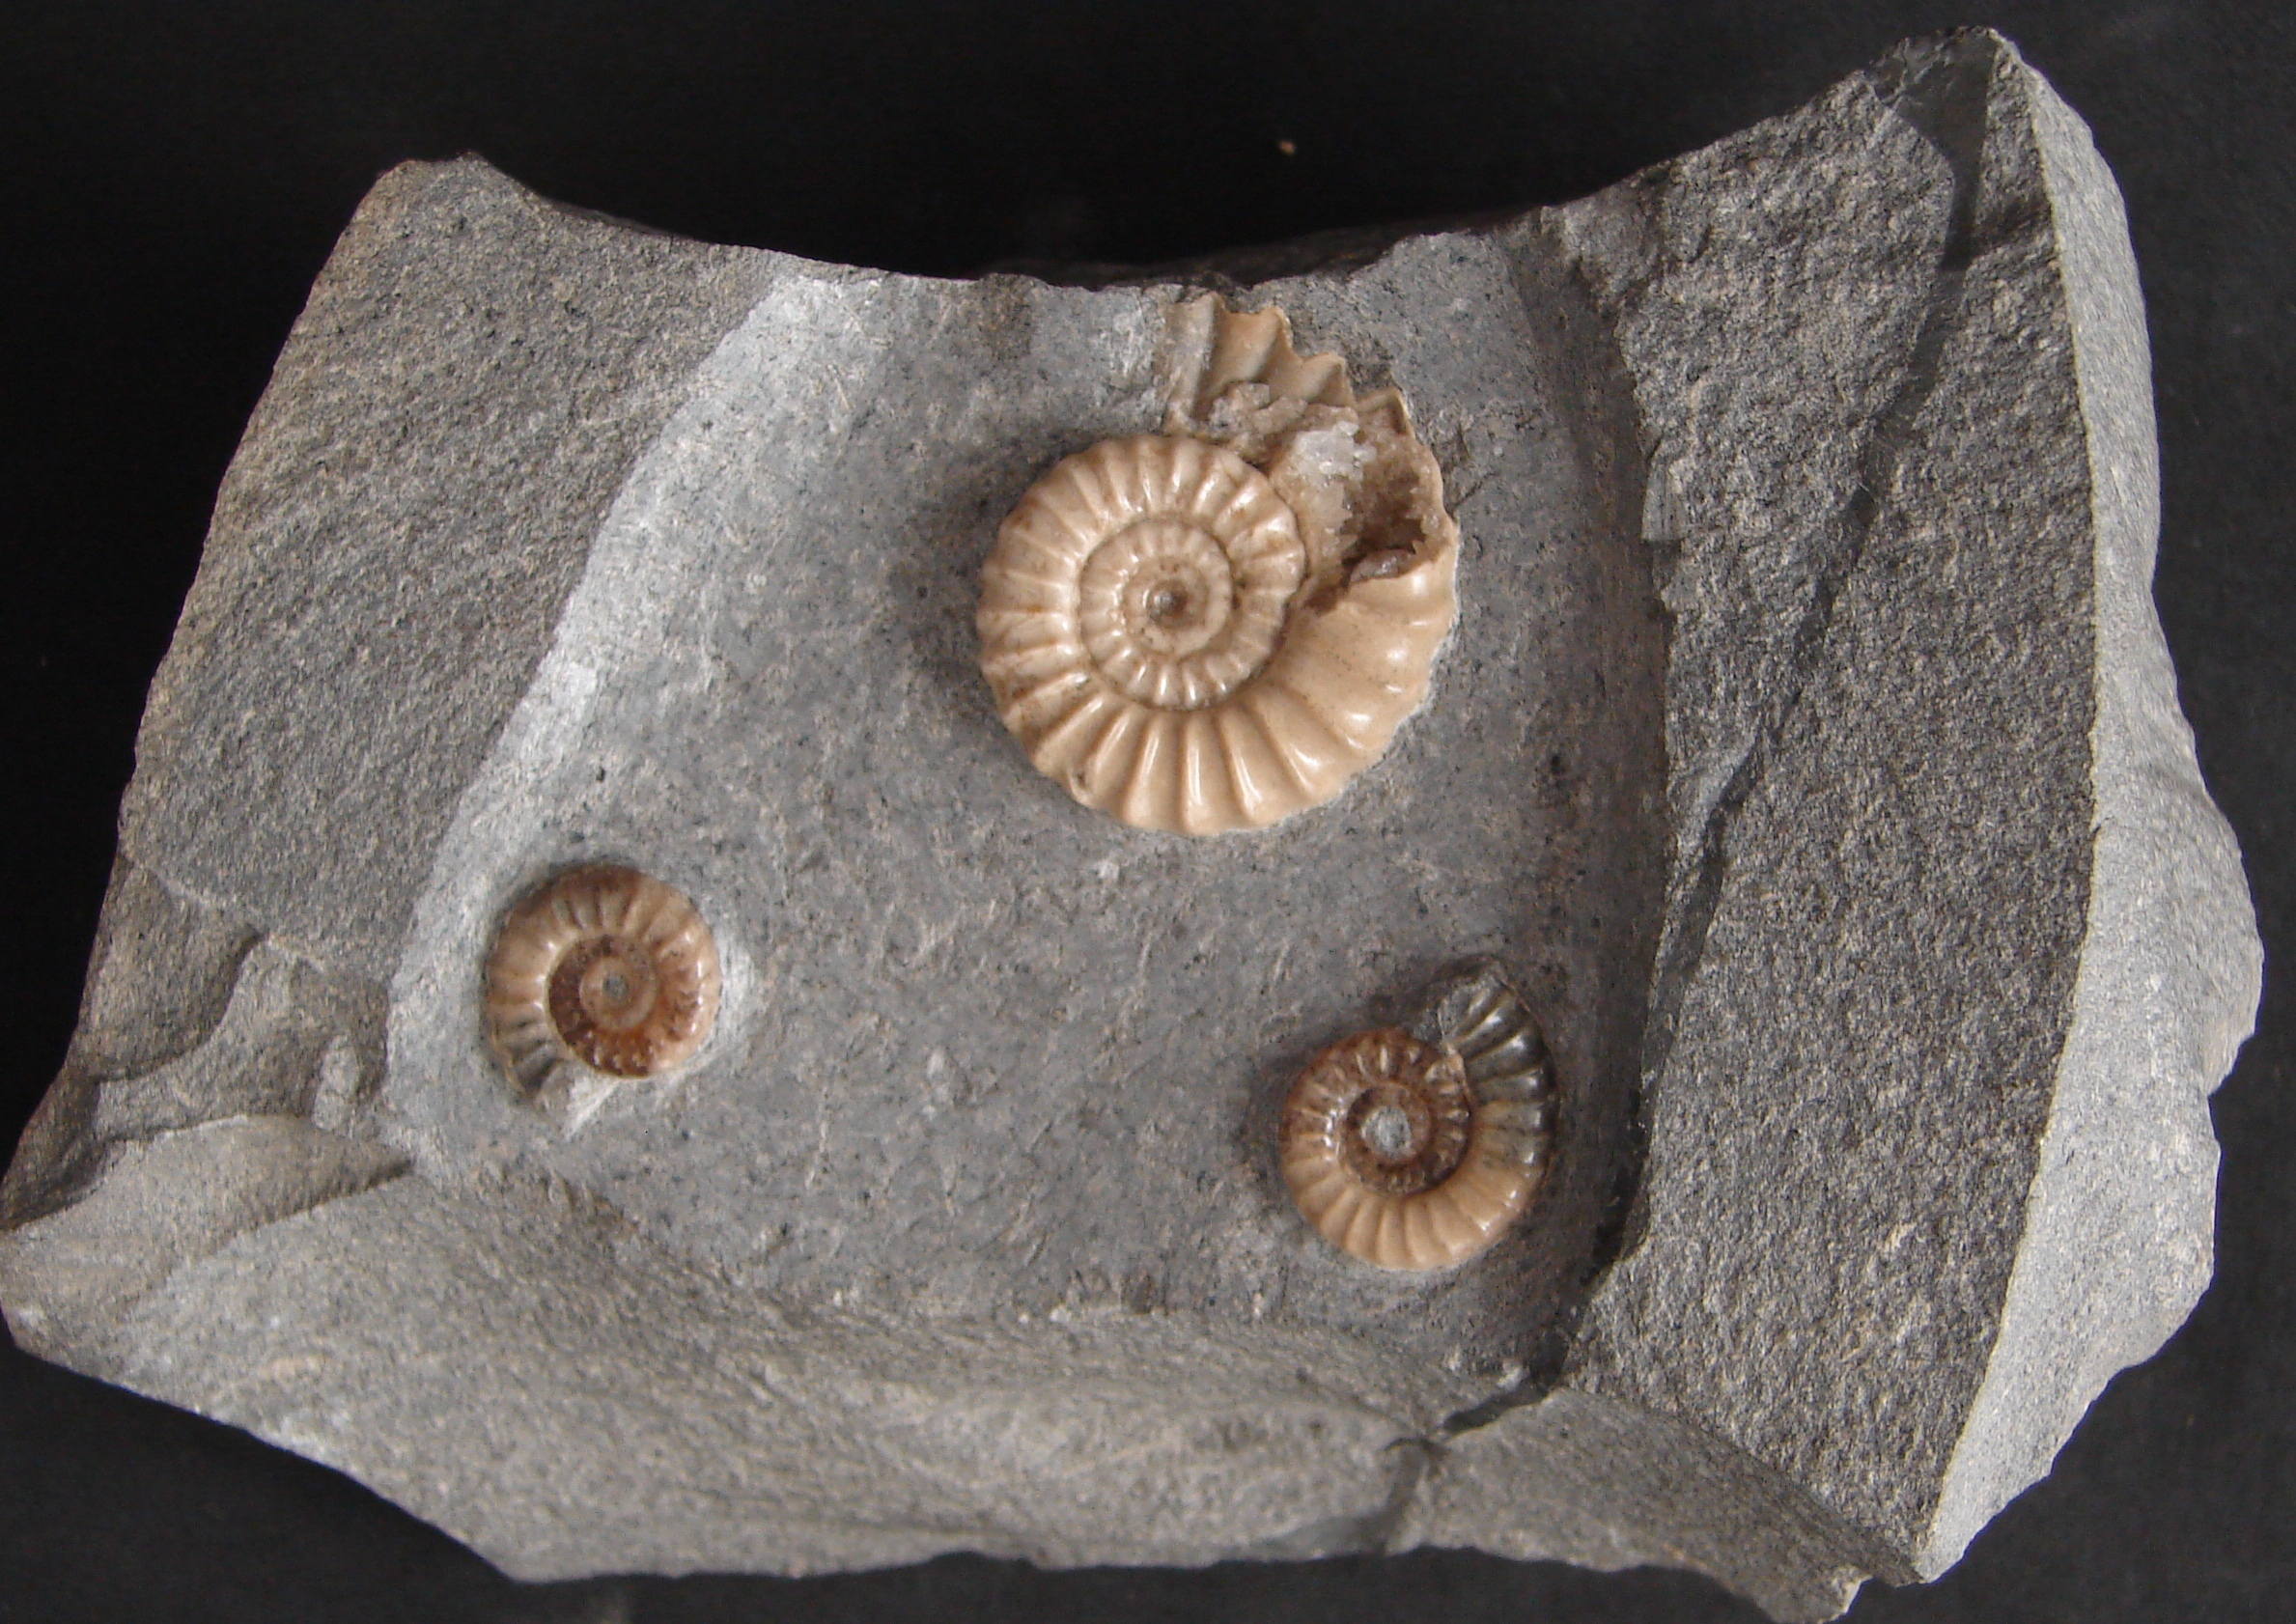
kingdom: Animalia
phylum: Mollusca
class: Cephalopoda
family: Eoderoceratidae
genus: Promicroceras
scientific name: Promicroceras planicosta
